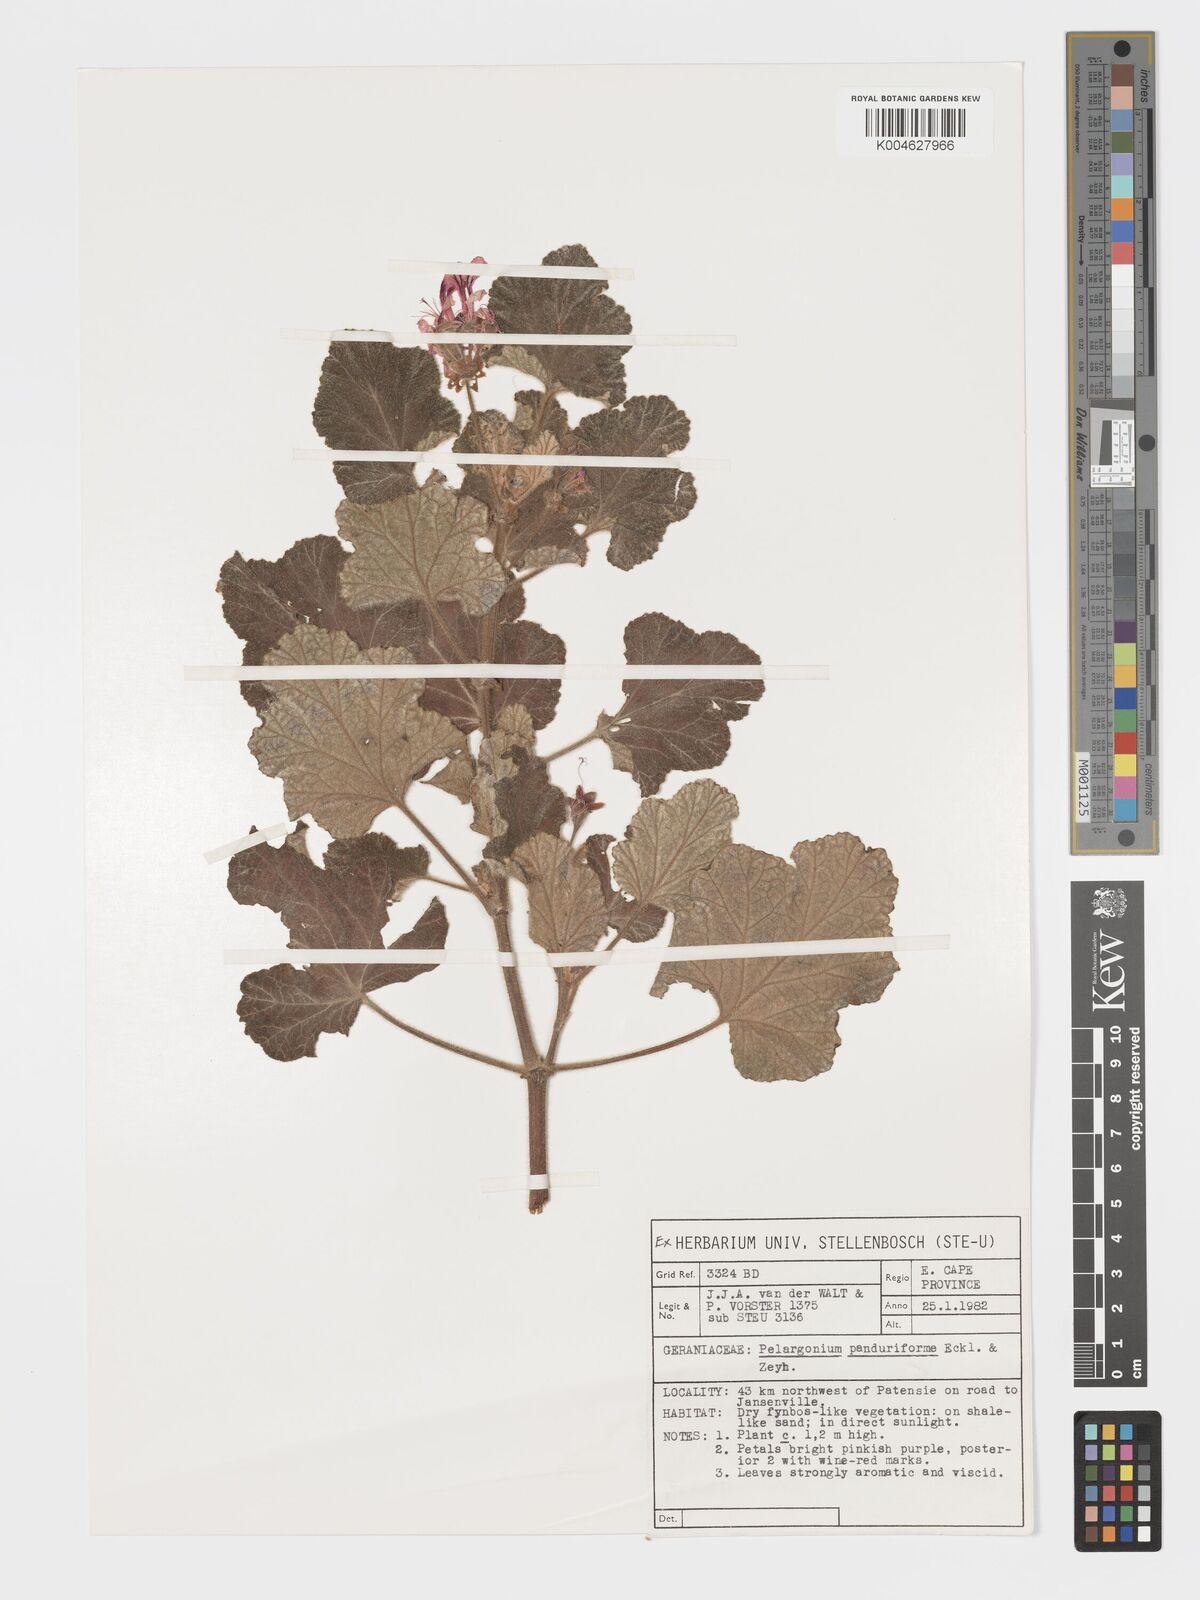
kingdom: Plantae
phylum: Tracheophyta
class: Magnoliopsida
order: Geraniales
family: Geraniaceae
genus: Pelargonium
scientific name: Pelargonium panduriforme
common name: Oakleaf garden geranium
